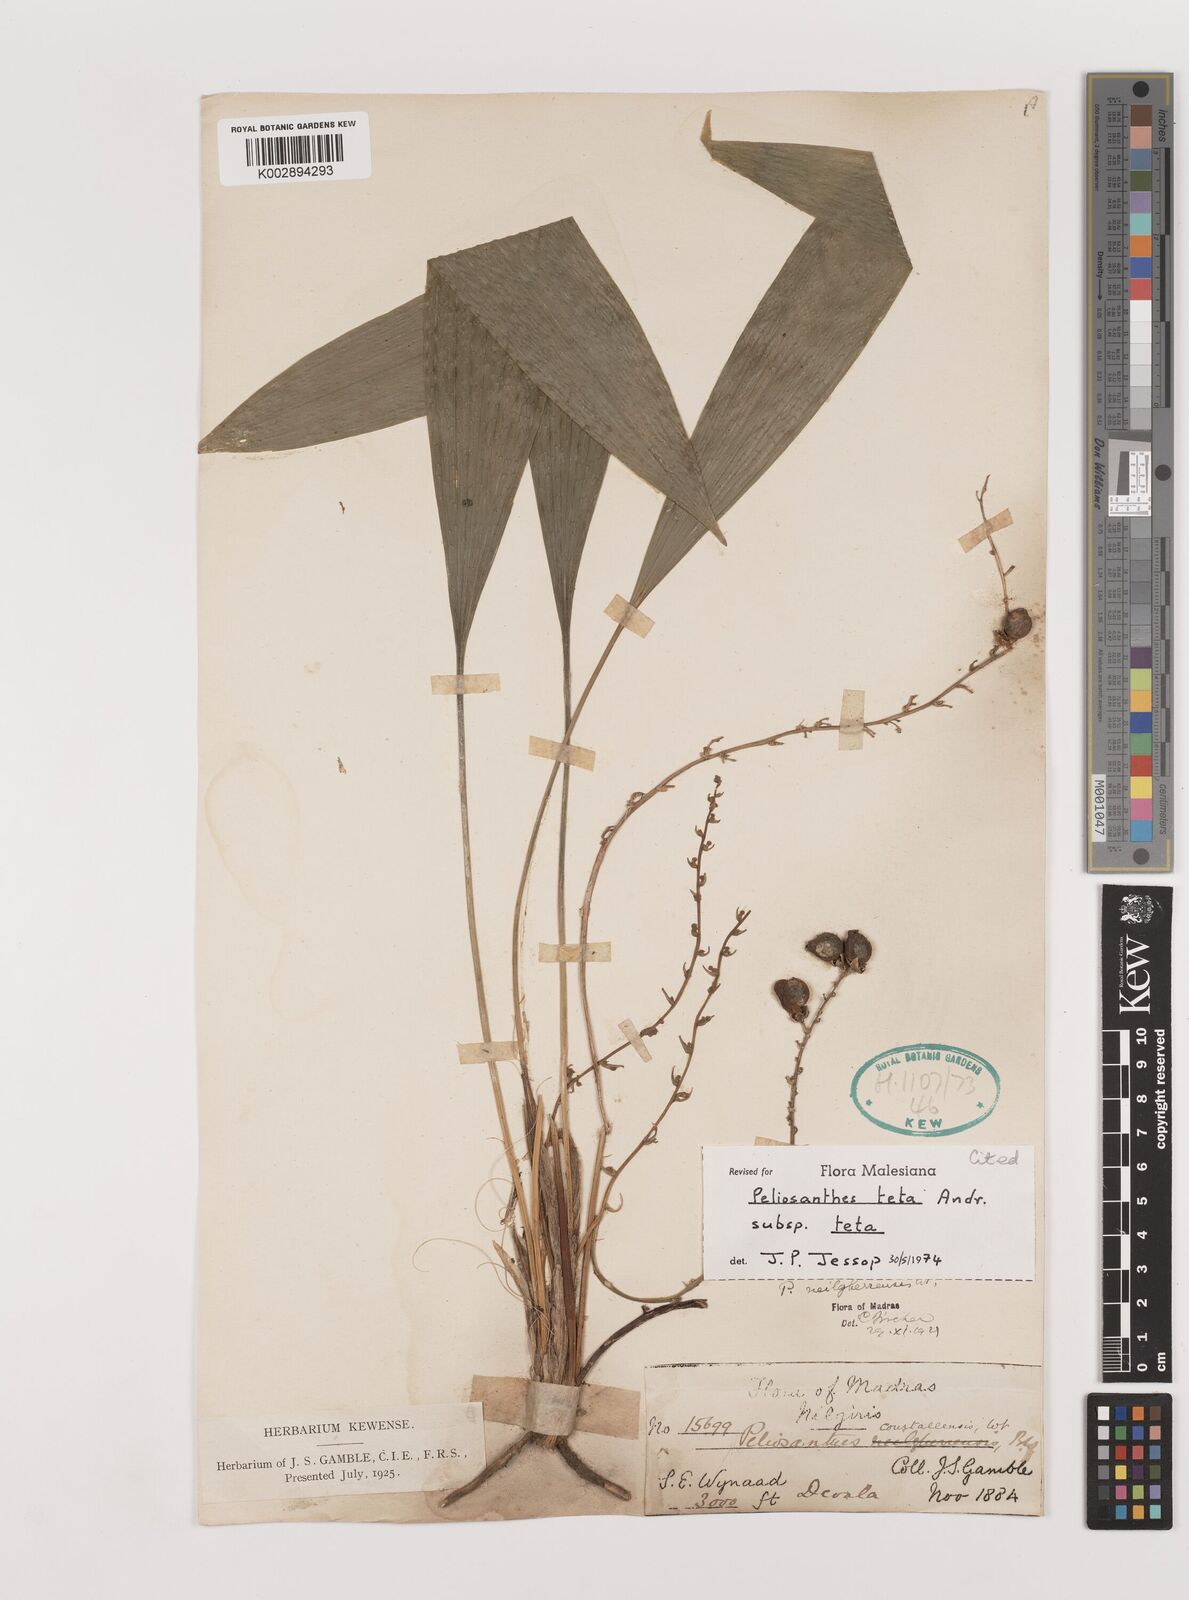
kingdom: Plantae
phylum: Tracheophyta
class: Liliopsida
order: Asparagales
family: Asparagaceae
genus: Peliosanthes
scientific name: Peliosanthes teta
